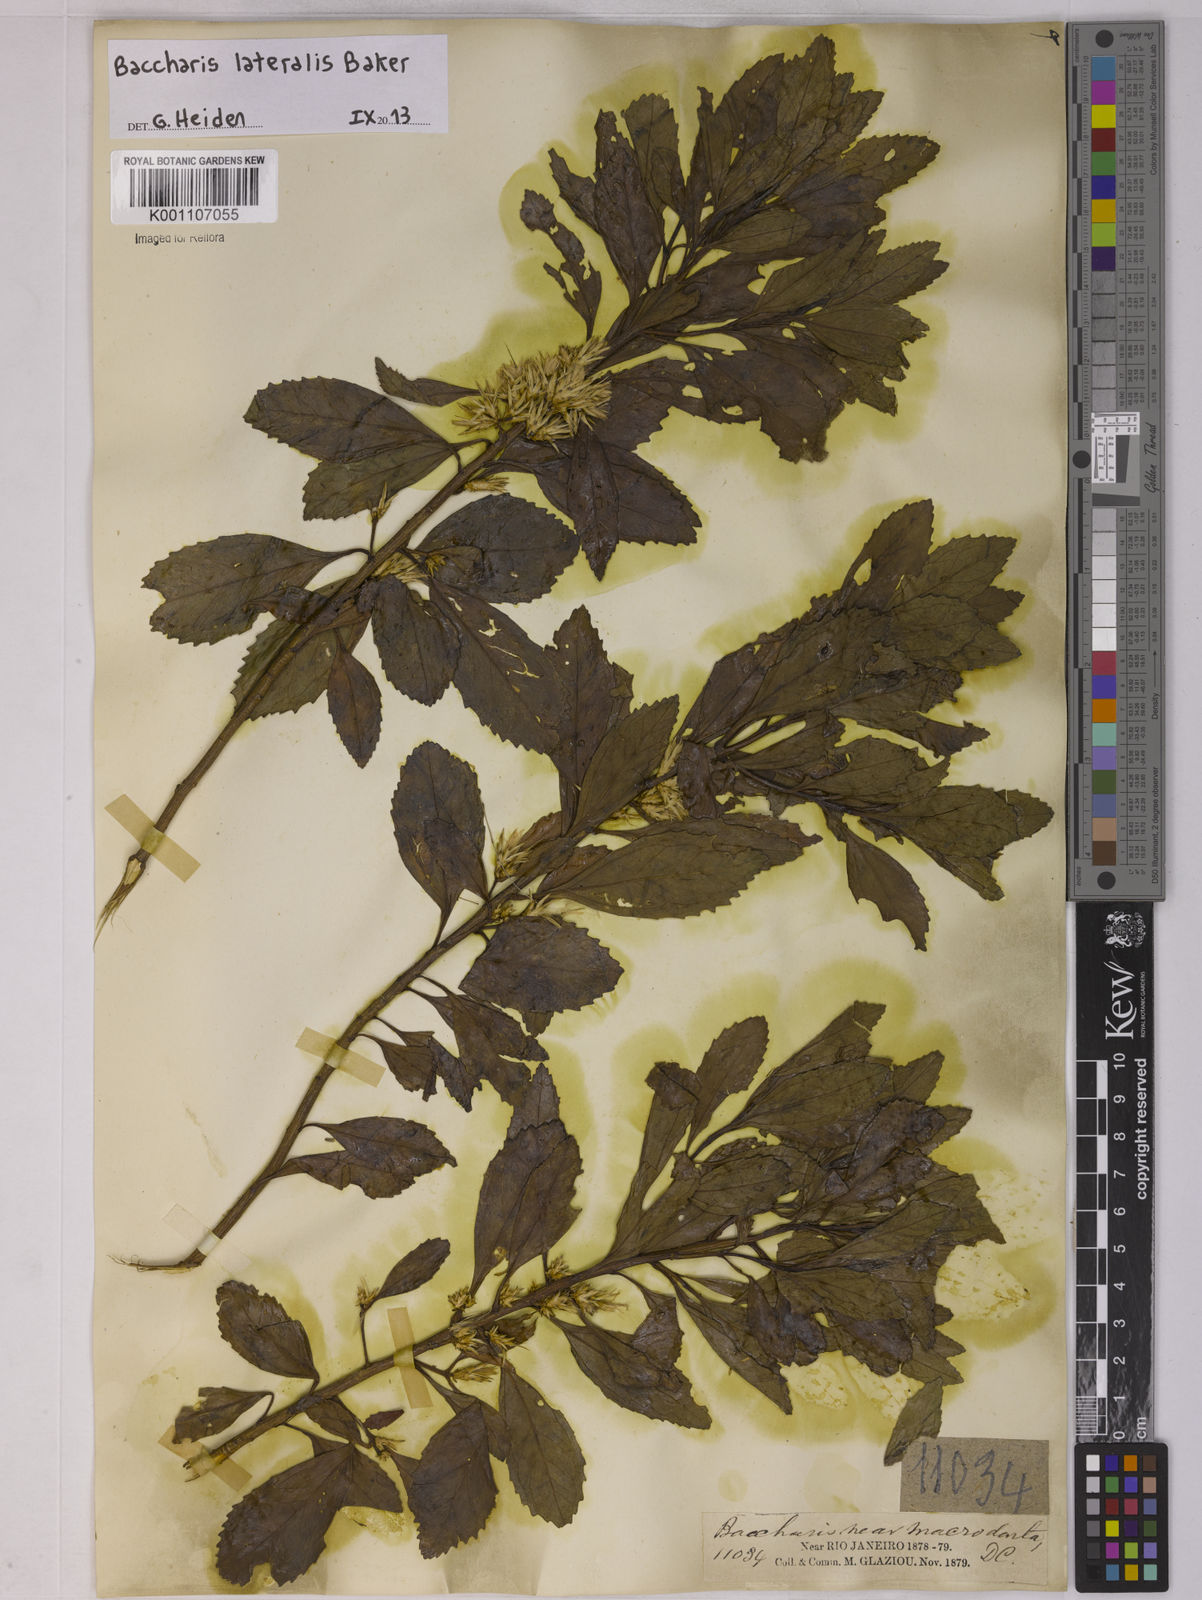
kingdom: Plantae
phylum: Tracheophyta
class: Magnoliopsida
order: Asterales
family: Asteraceae
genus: Baccharis
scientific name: Baccharis lateralis
